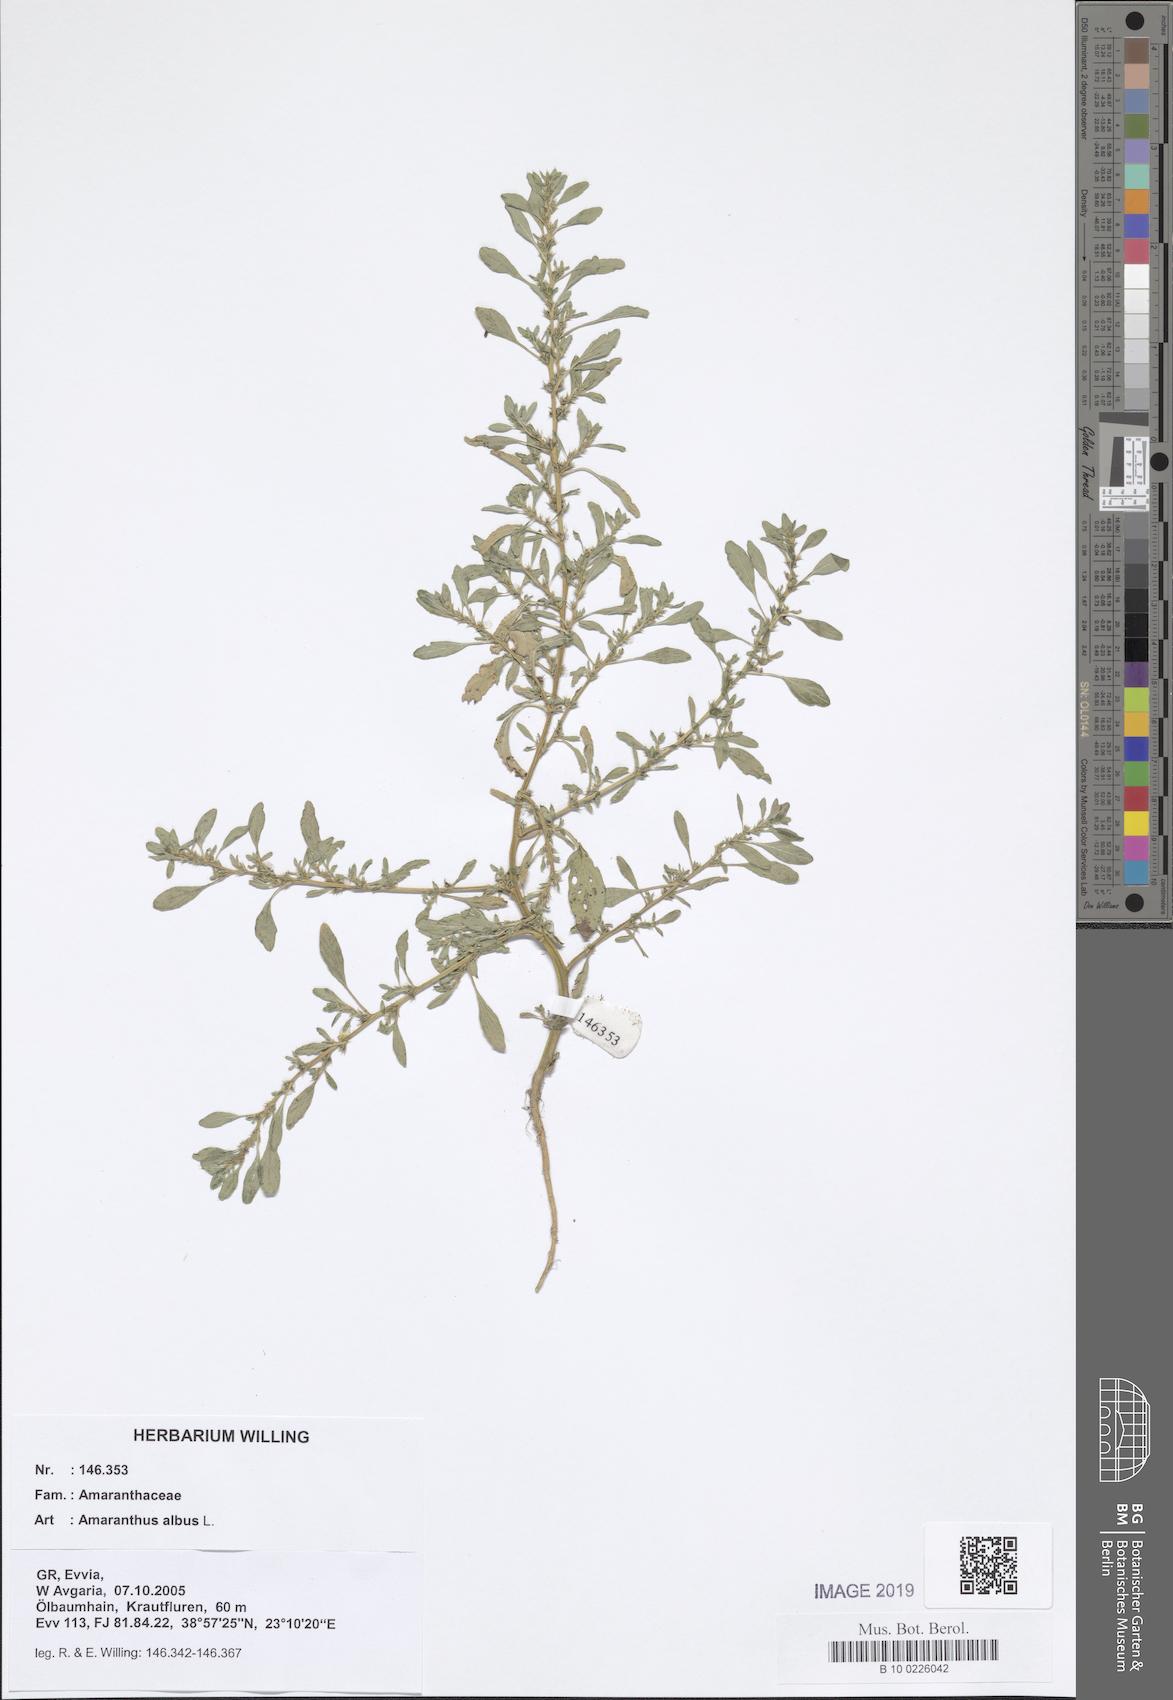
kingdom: Plantae
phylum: Tracheophyta
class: Magnoliopsida
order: Caryophyllales
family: Amaranthaceae
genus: Amaranthus
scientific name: Amaranthus albus
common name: White pigweed
